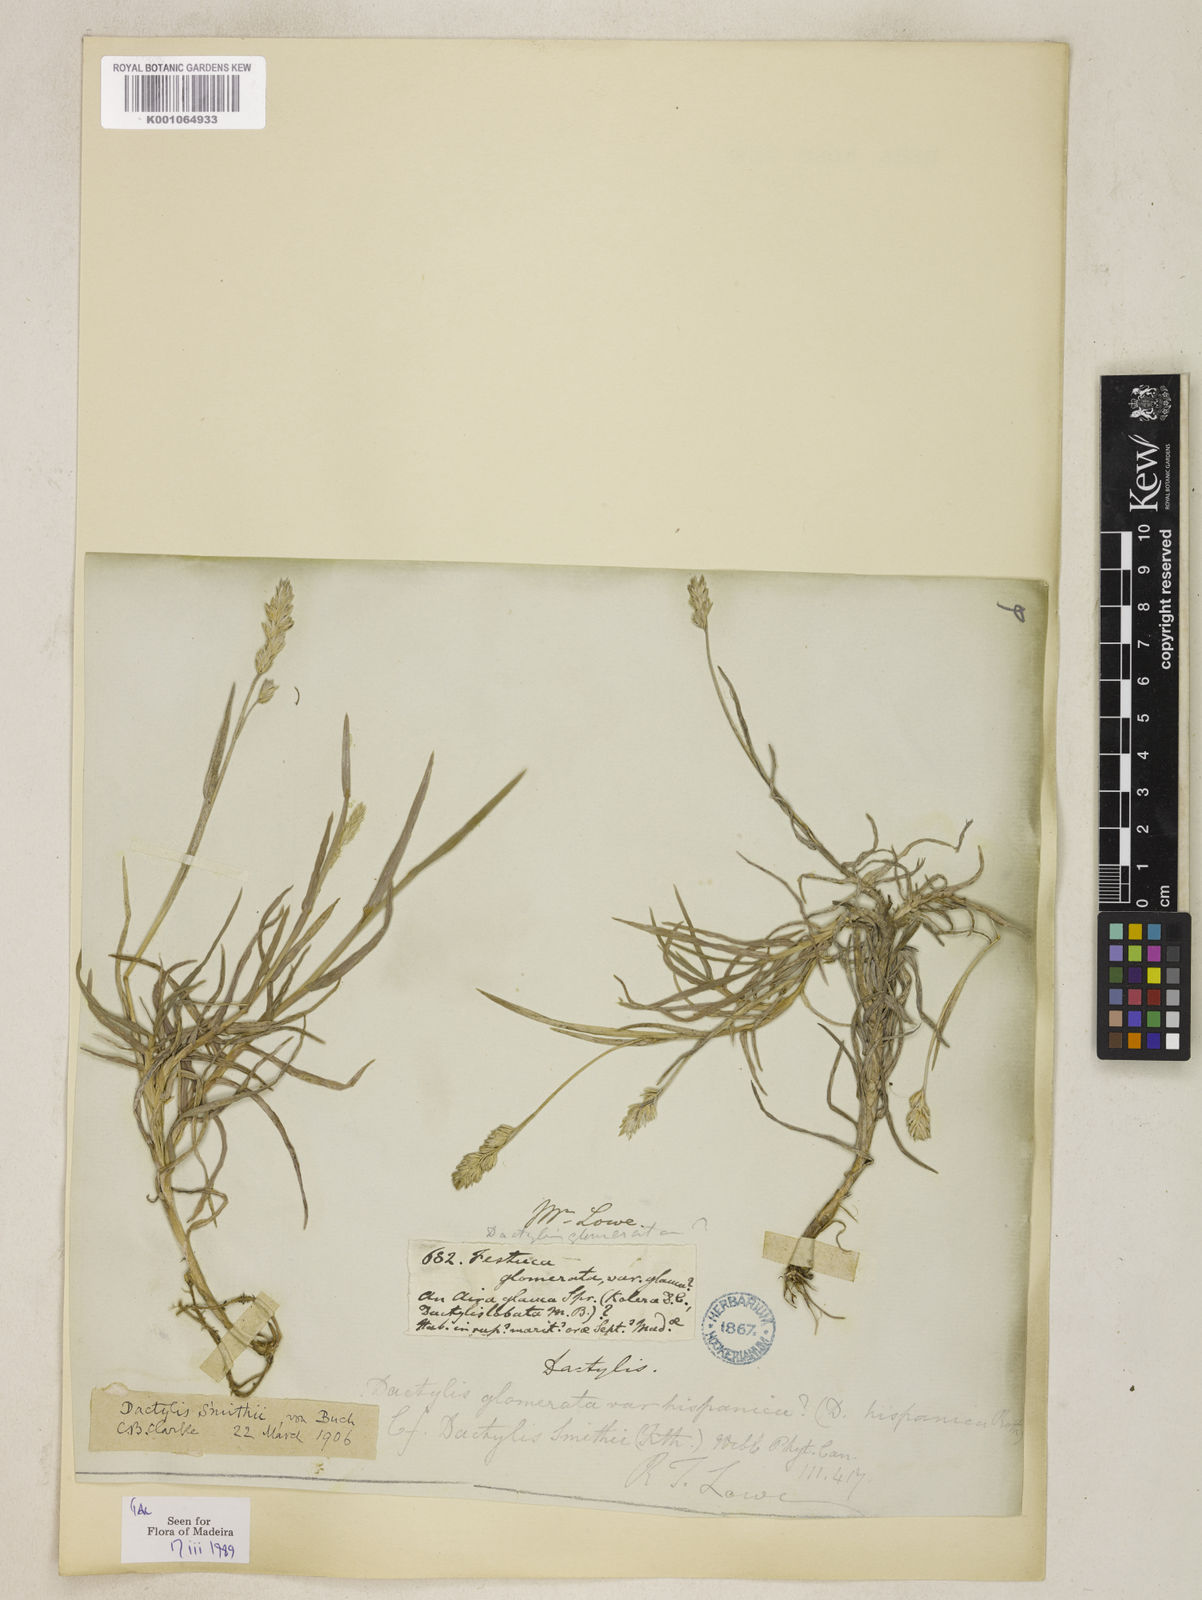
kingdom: Plantae
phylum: Tracheophyta
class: Liliopsida
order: Poales
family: Poaceae
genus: Dactylis
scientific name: Dactylis glomerata
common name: Orchardgrass
